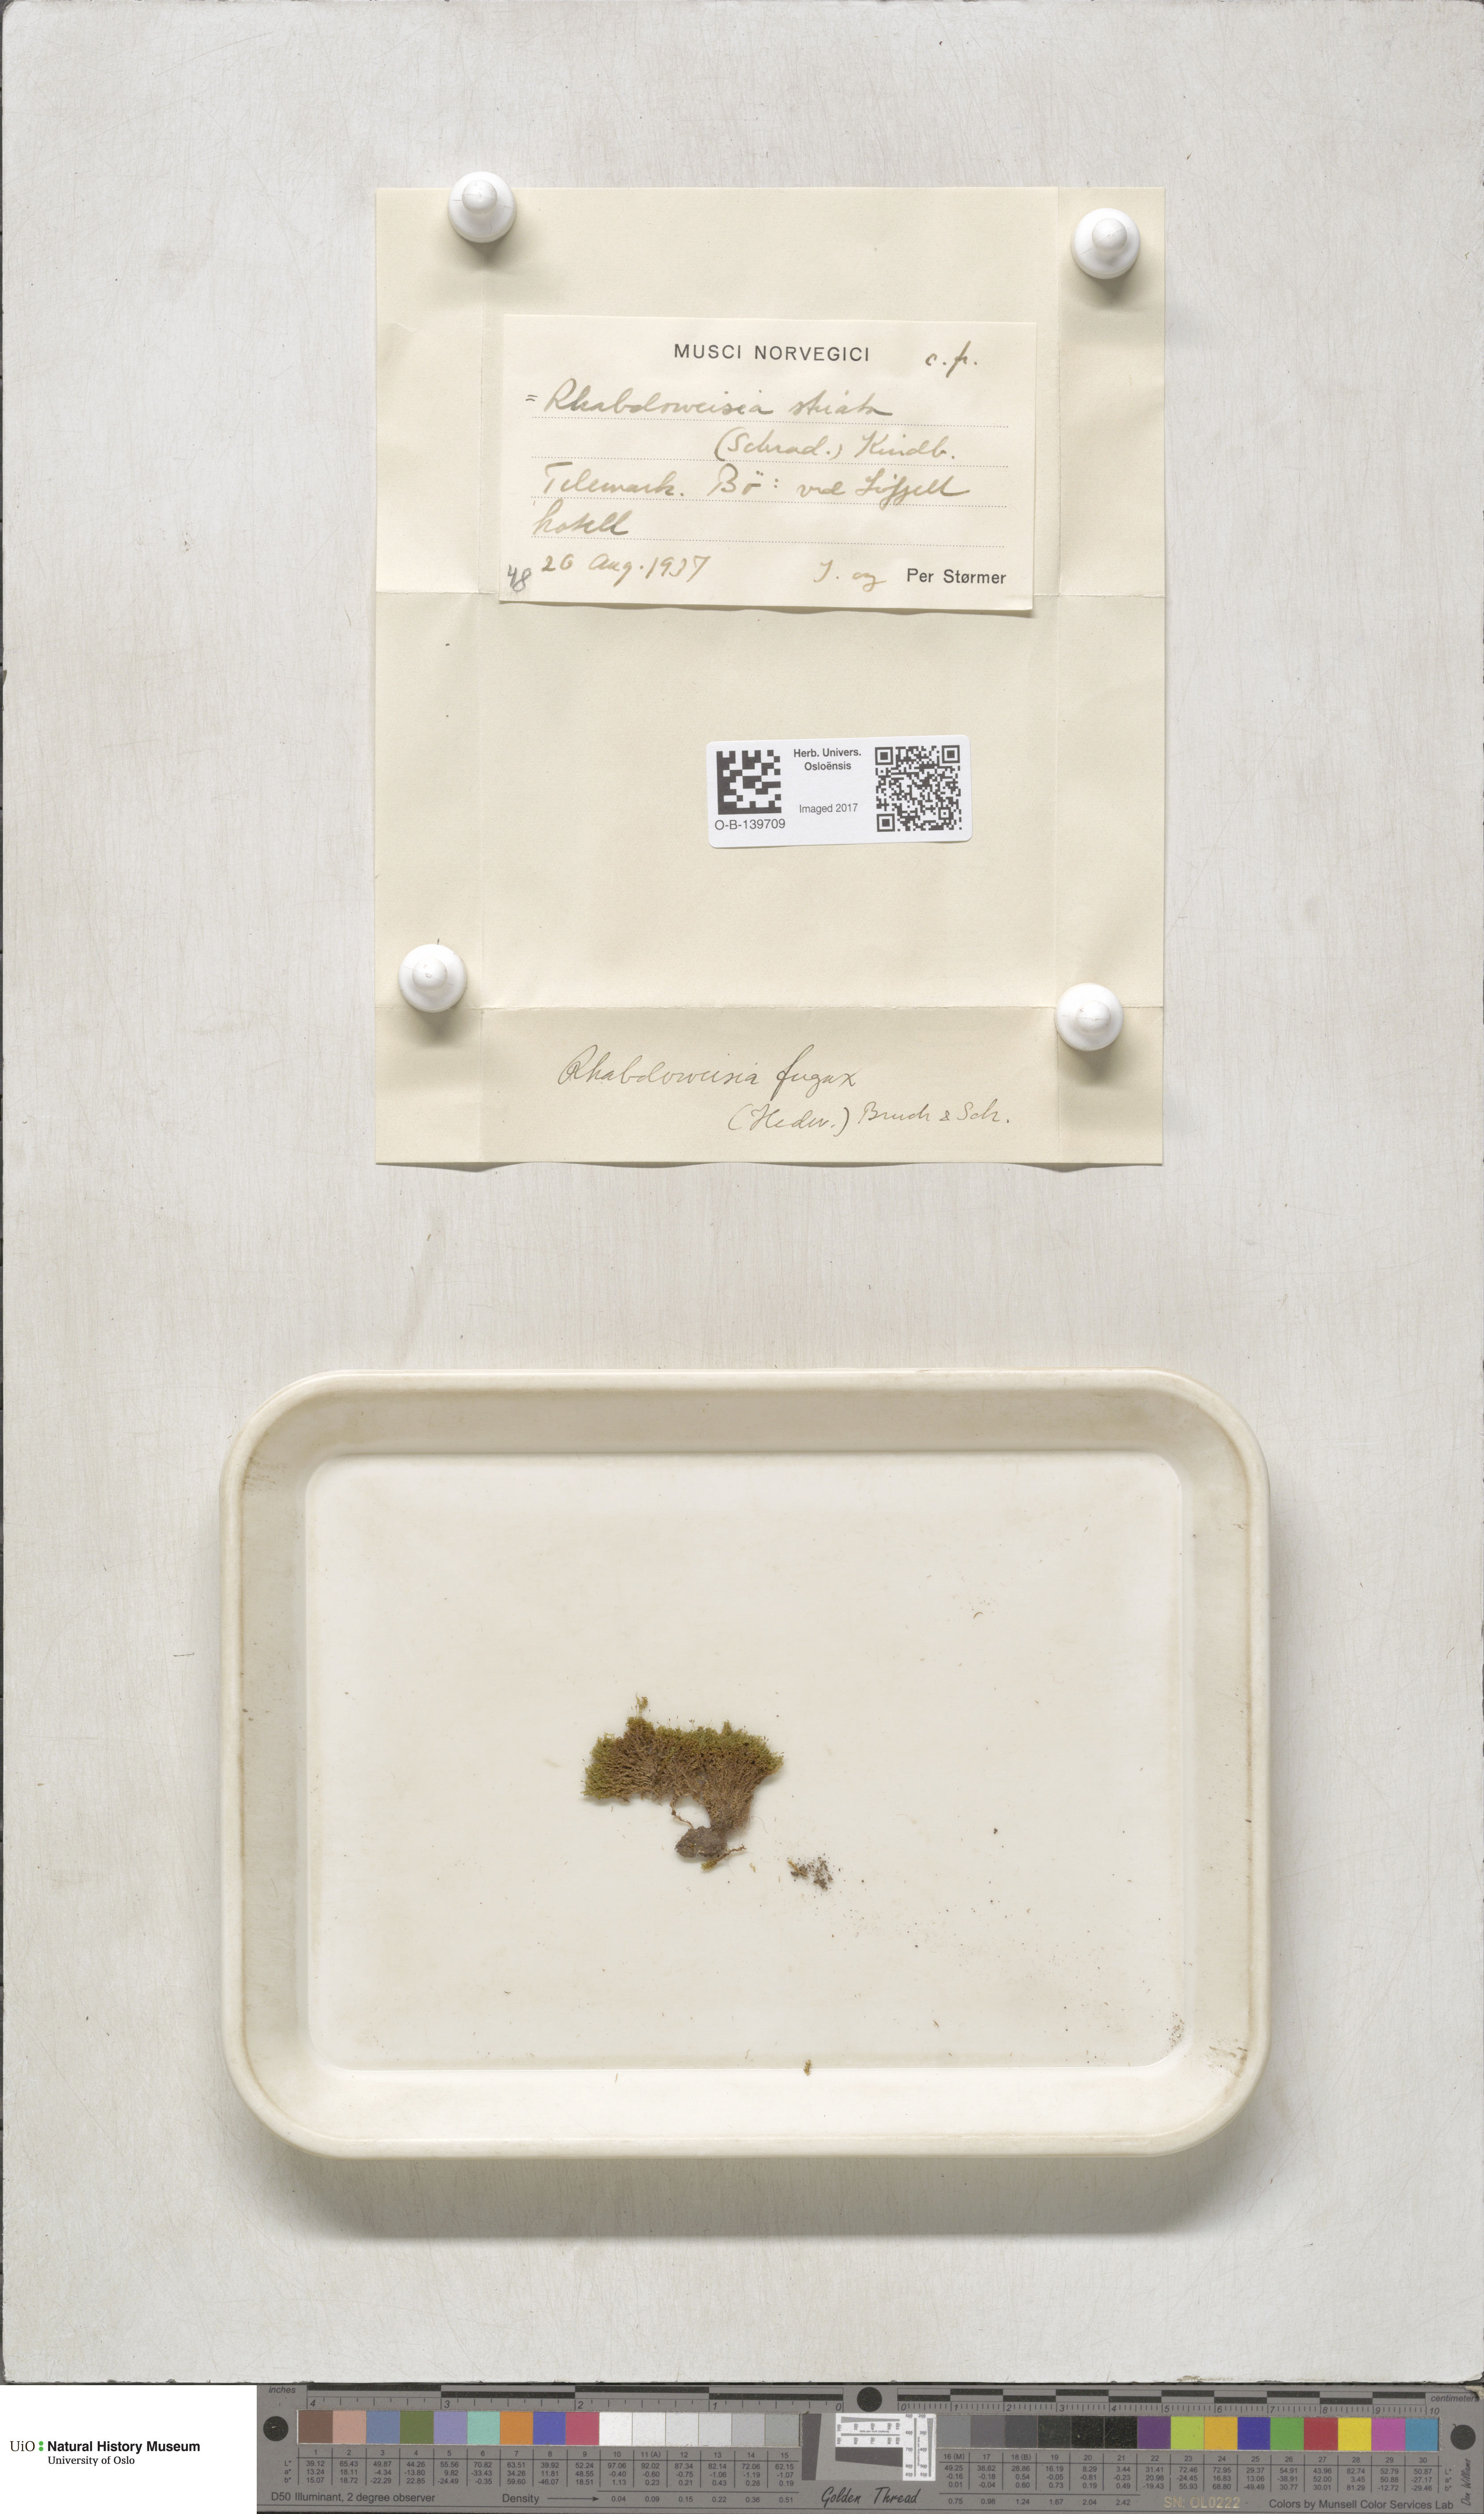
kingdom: Plantae
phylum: Bryophyta
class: Bryopsida
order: Dicranales
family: Rhabdoweisiaceae
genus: Rhabdoweisia
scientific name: Rhabdoweisia fugax
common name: Dwarf streak-moss
